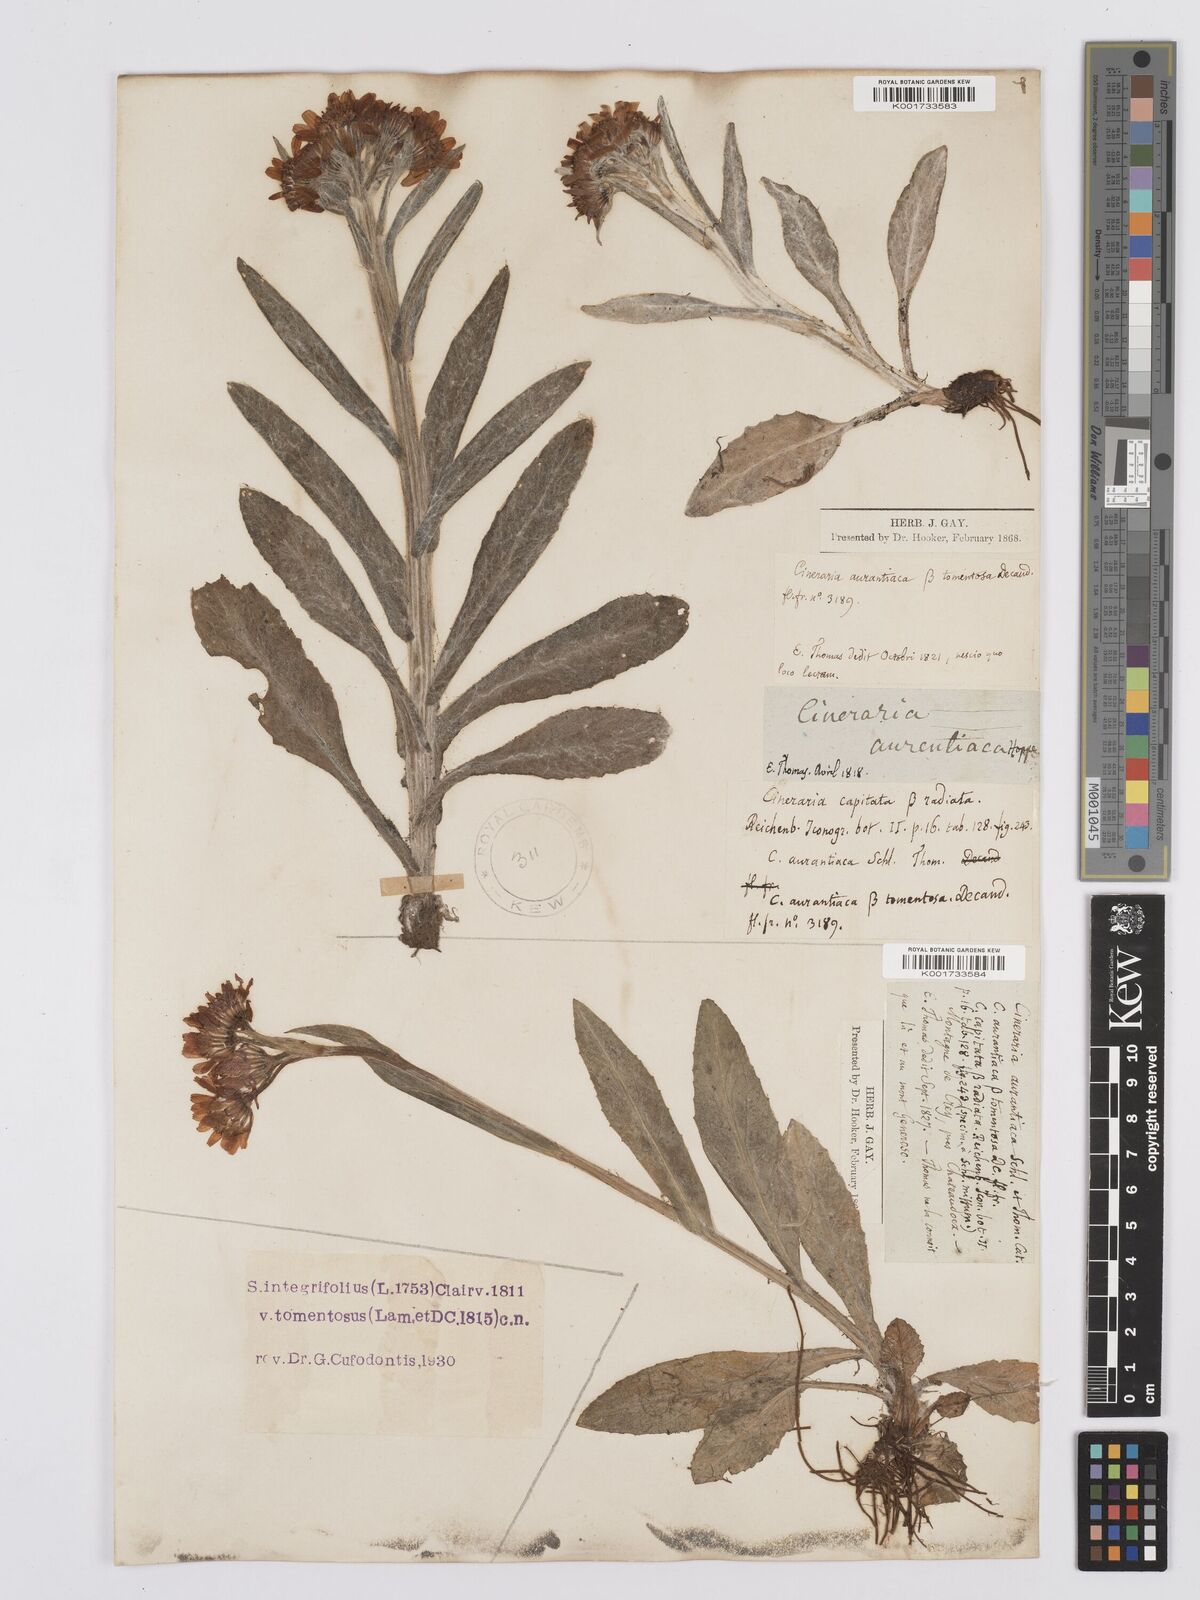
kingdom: Plantae
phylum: Tracheophyta
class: Magnoliopsida
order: Asterales
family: Asteraceae
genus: Tephroseris
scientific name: Tephroseris integrifolia
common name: Field fleawort
